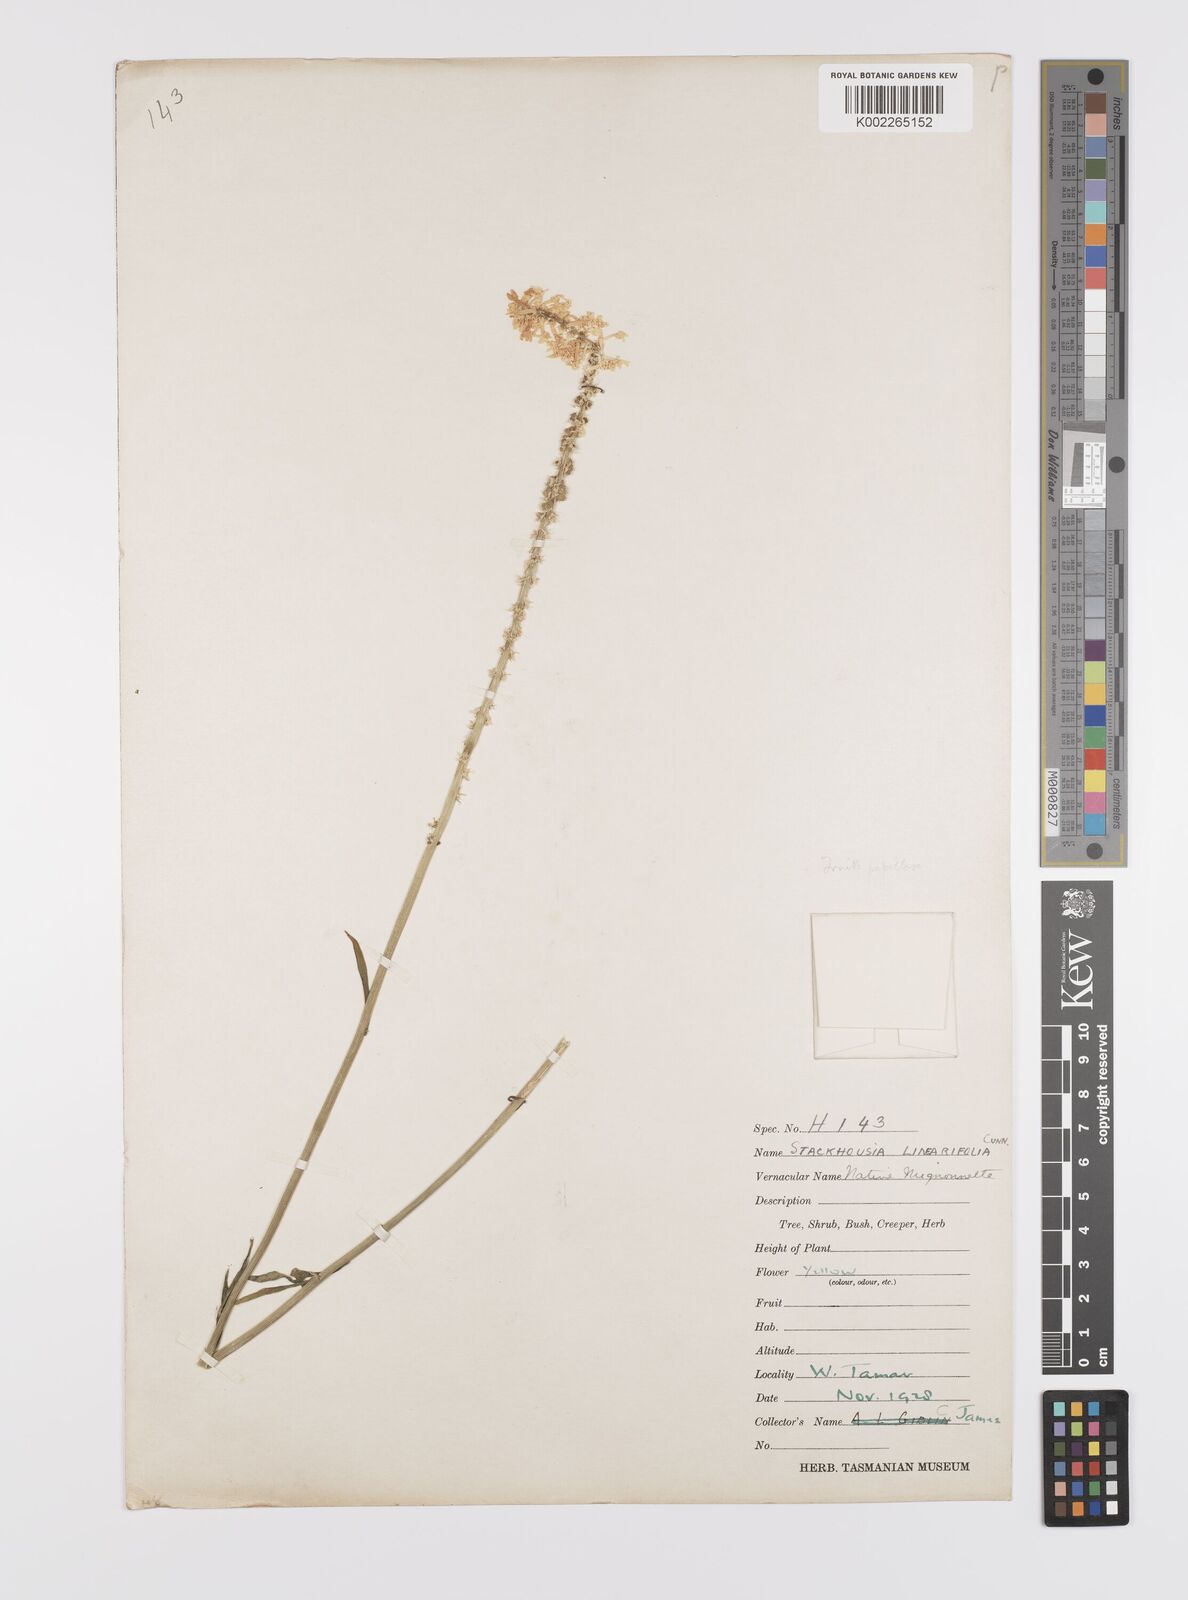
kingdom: Plantae
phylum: Tracheophyta
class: Magnoliopsida
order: Celastrales
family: Celastraceae
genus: Stackhousia
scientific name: Stackhousia monogyna
